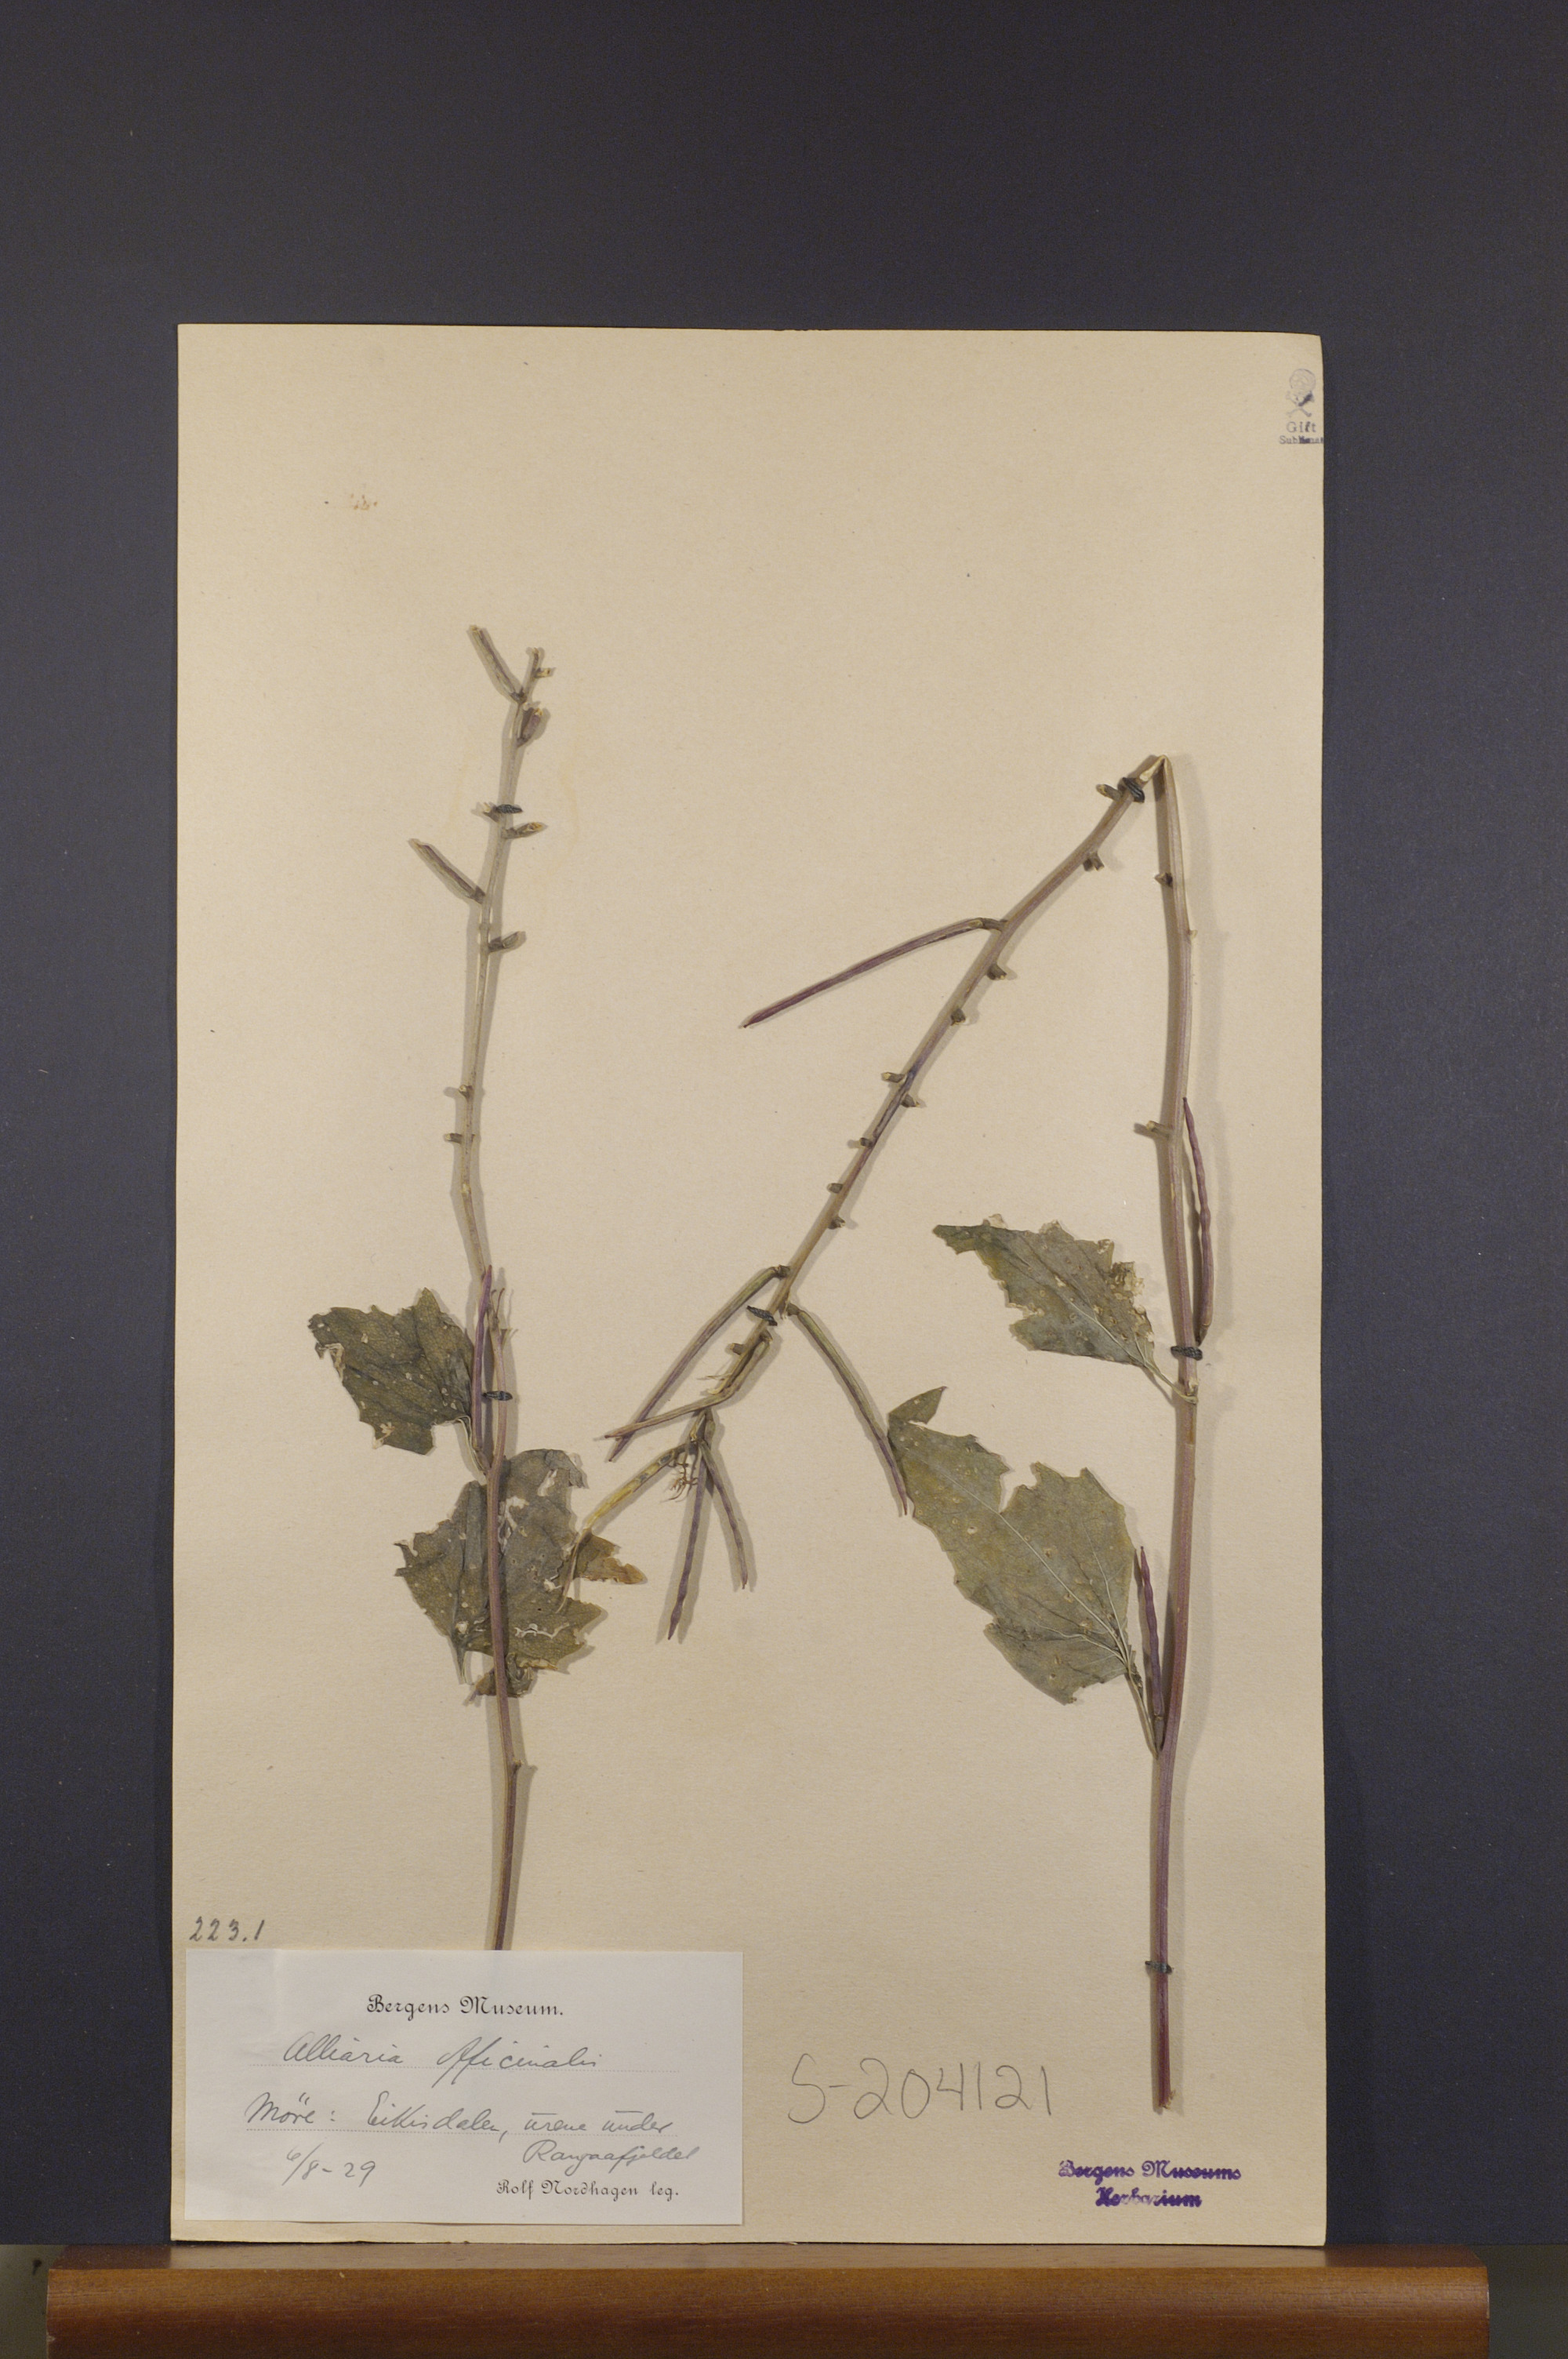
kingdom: Plantae
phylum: Tracheophyta
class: Magnoliopsida
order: Brassicales
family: Brassicaceae
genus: Alliaria
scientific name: Alliaria petiolata
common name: Garlic mustard
